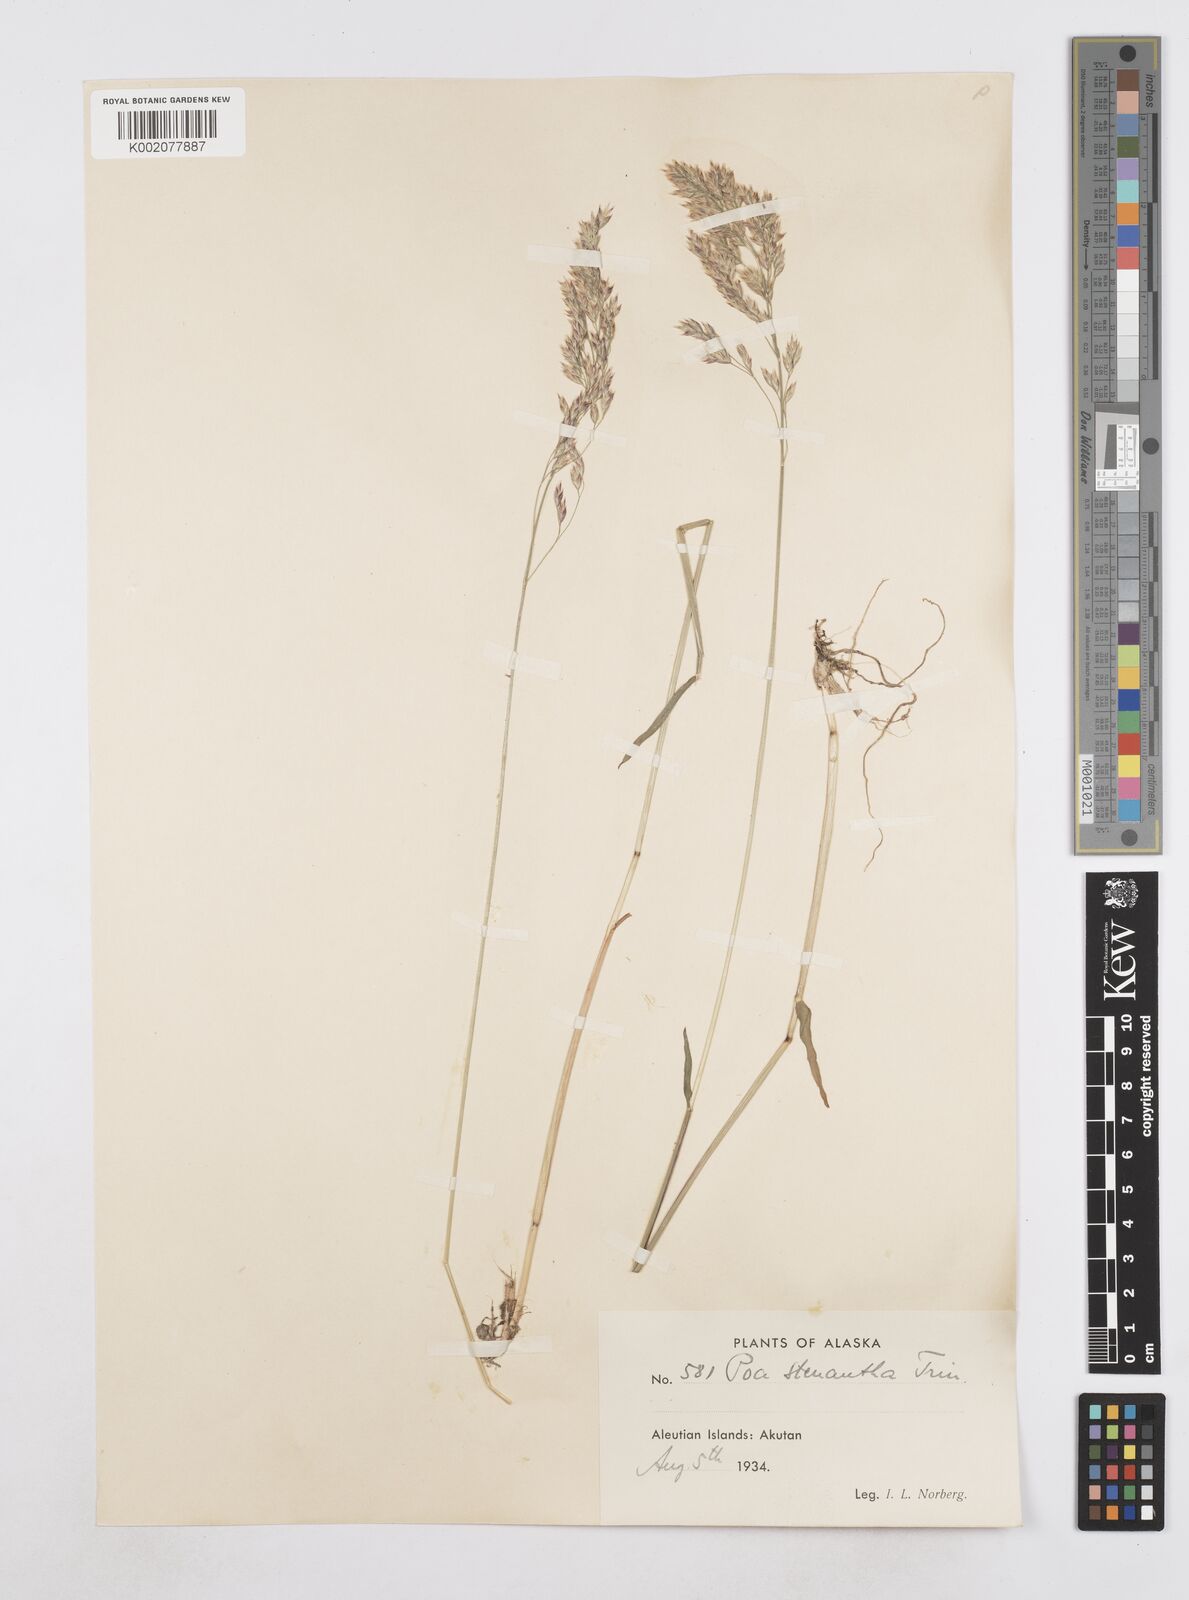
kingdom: Plantae
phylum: Tracheophyta
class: Liliopsida
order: Poales
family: Poaceae
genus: Poa
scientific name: Poa stenantha
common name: Narrow-flowered bluegrass
